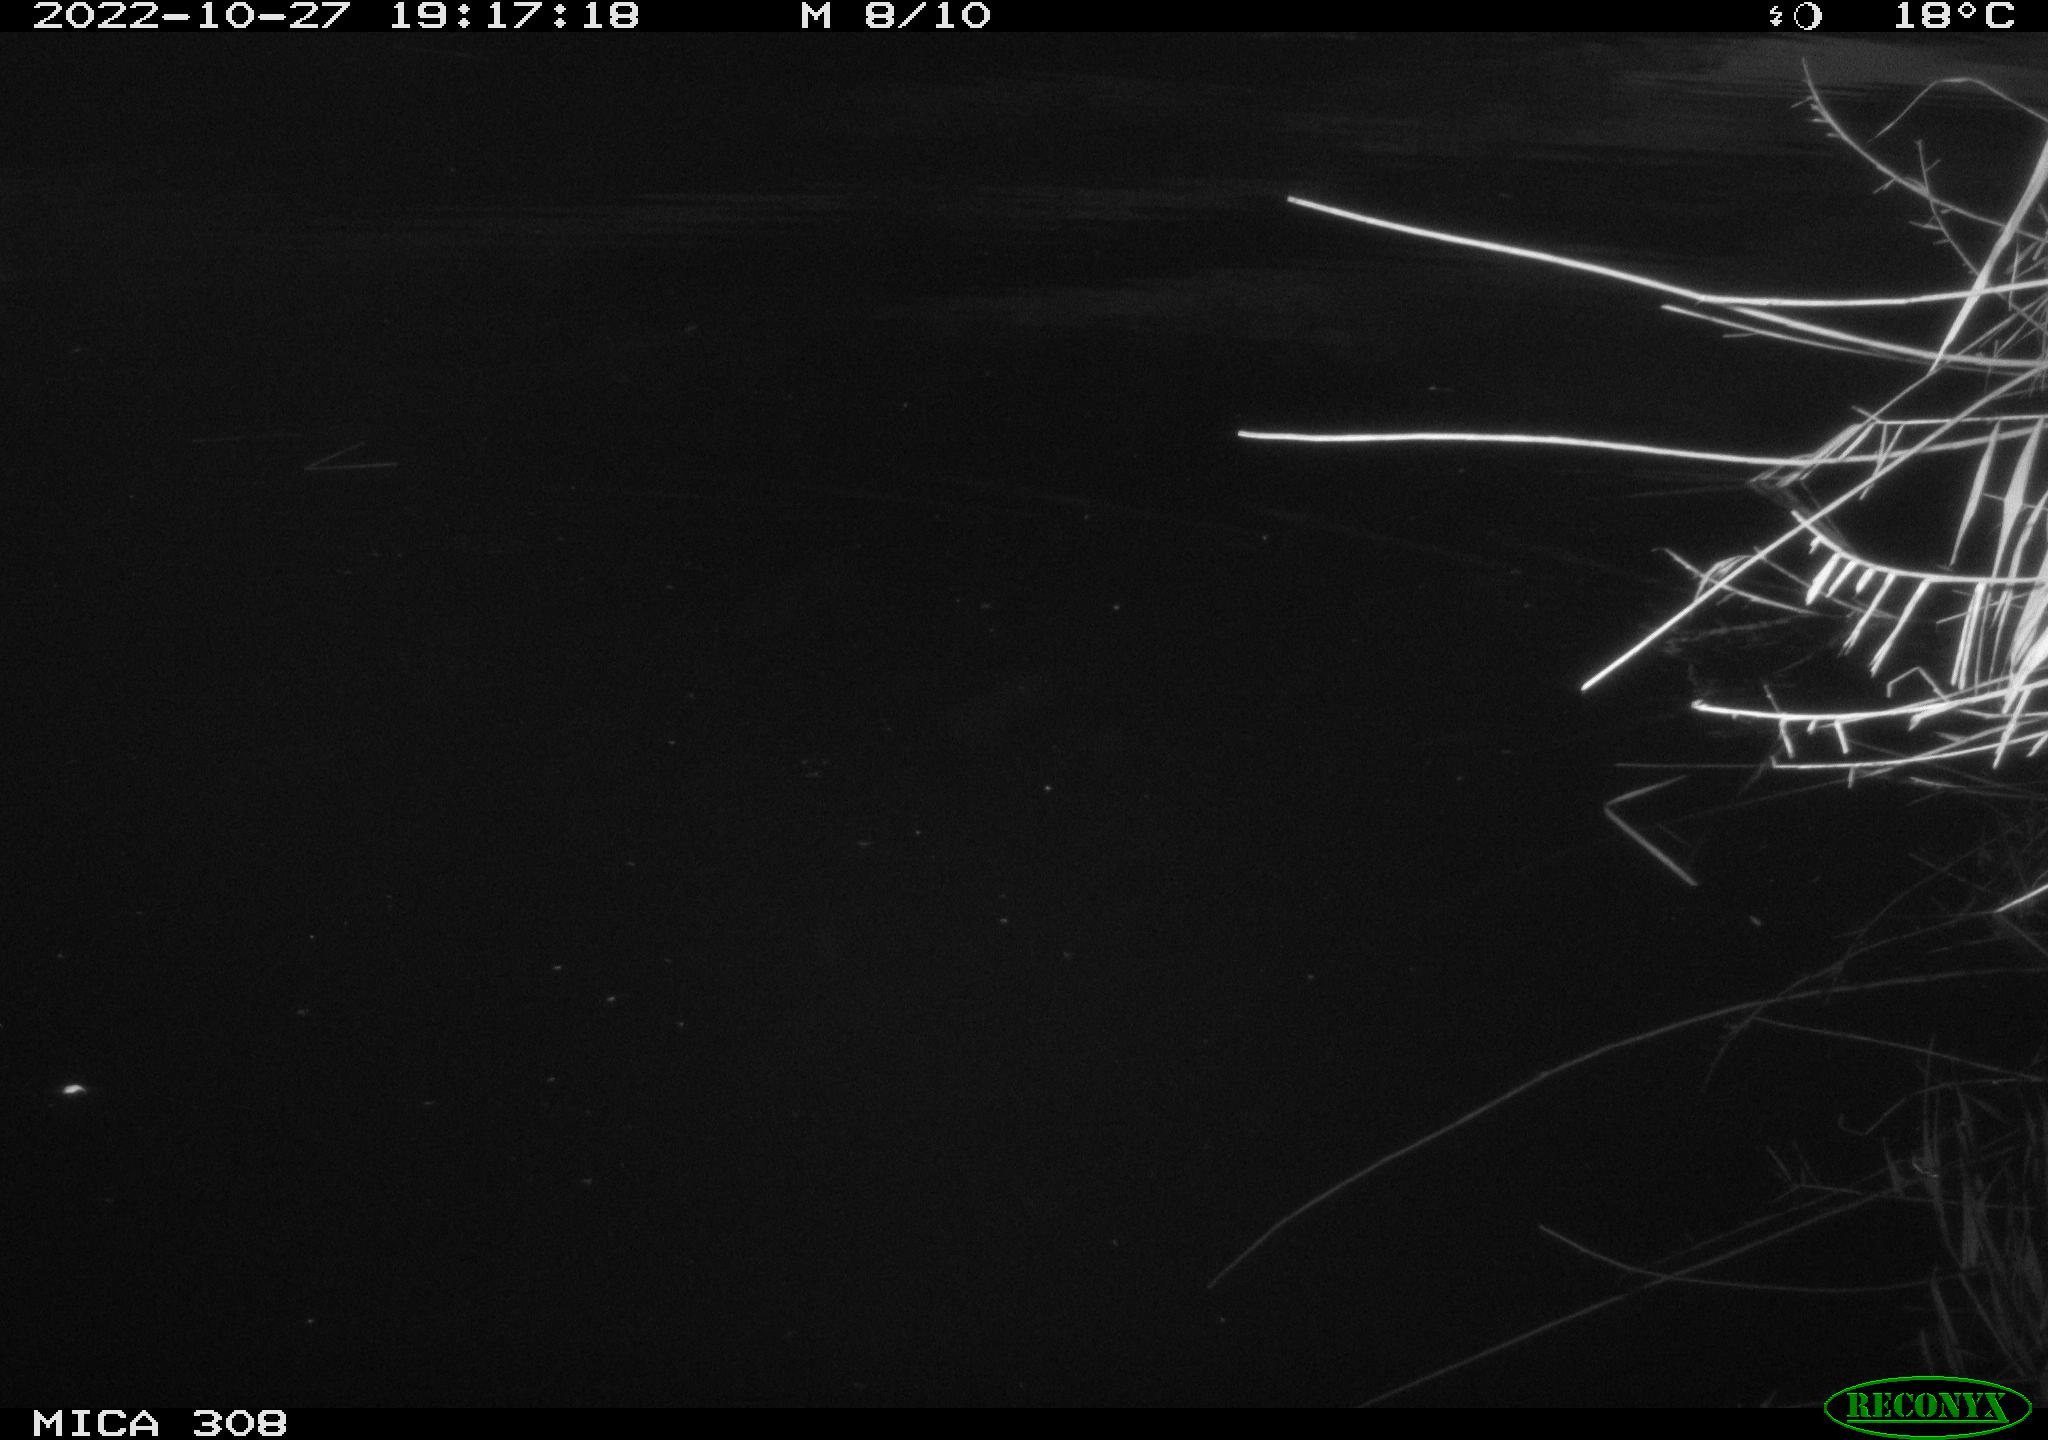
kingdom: Animalia
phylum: Chordata
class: Mammalia
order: Rodentia
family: Muridae
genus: Rattus
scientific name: Rattus norvegicus
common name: Brown rat
